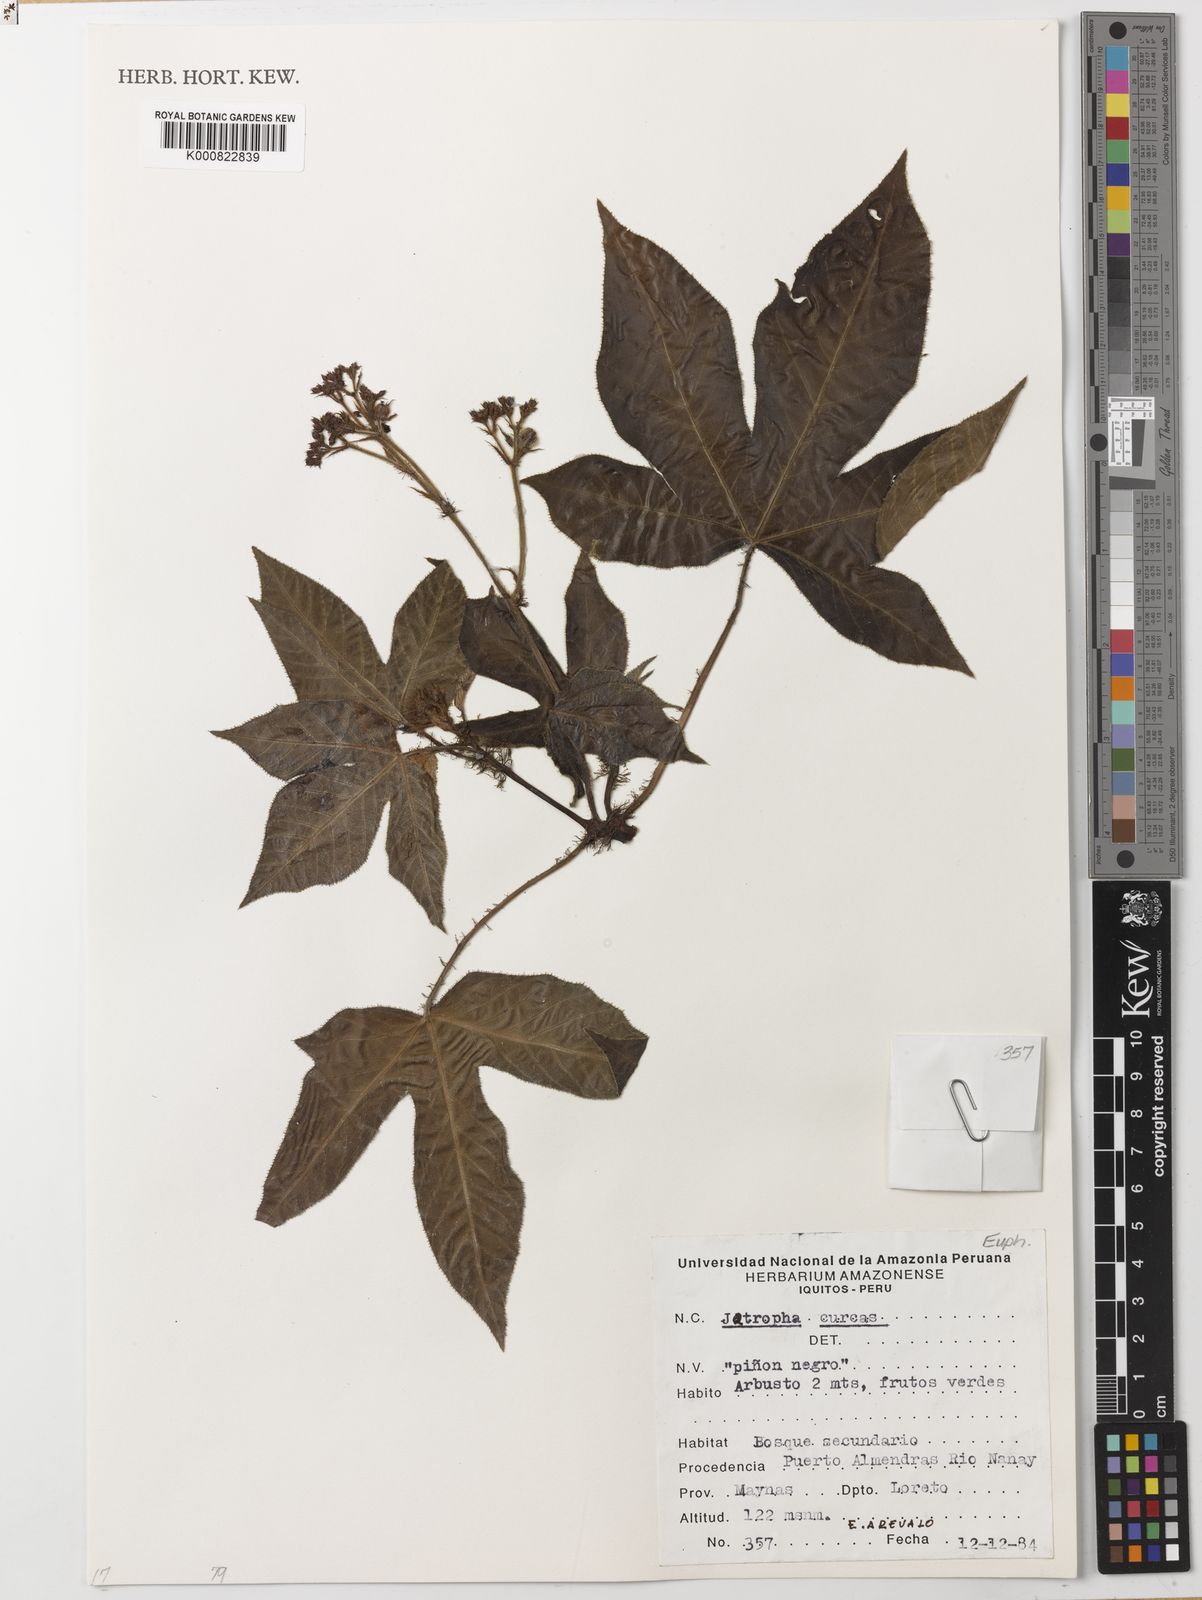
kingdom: Plantae
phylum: Tracheophyta
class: Magnoliopsida
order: Malpighiales
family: Euphorbiaceae
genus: Jatropha
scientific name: Jatropha curcas
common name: Barbados nut
